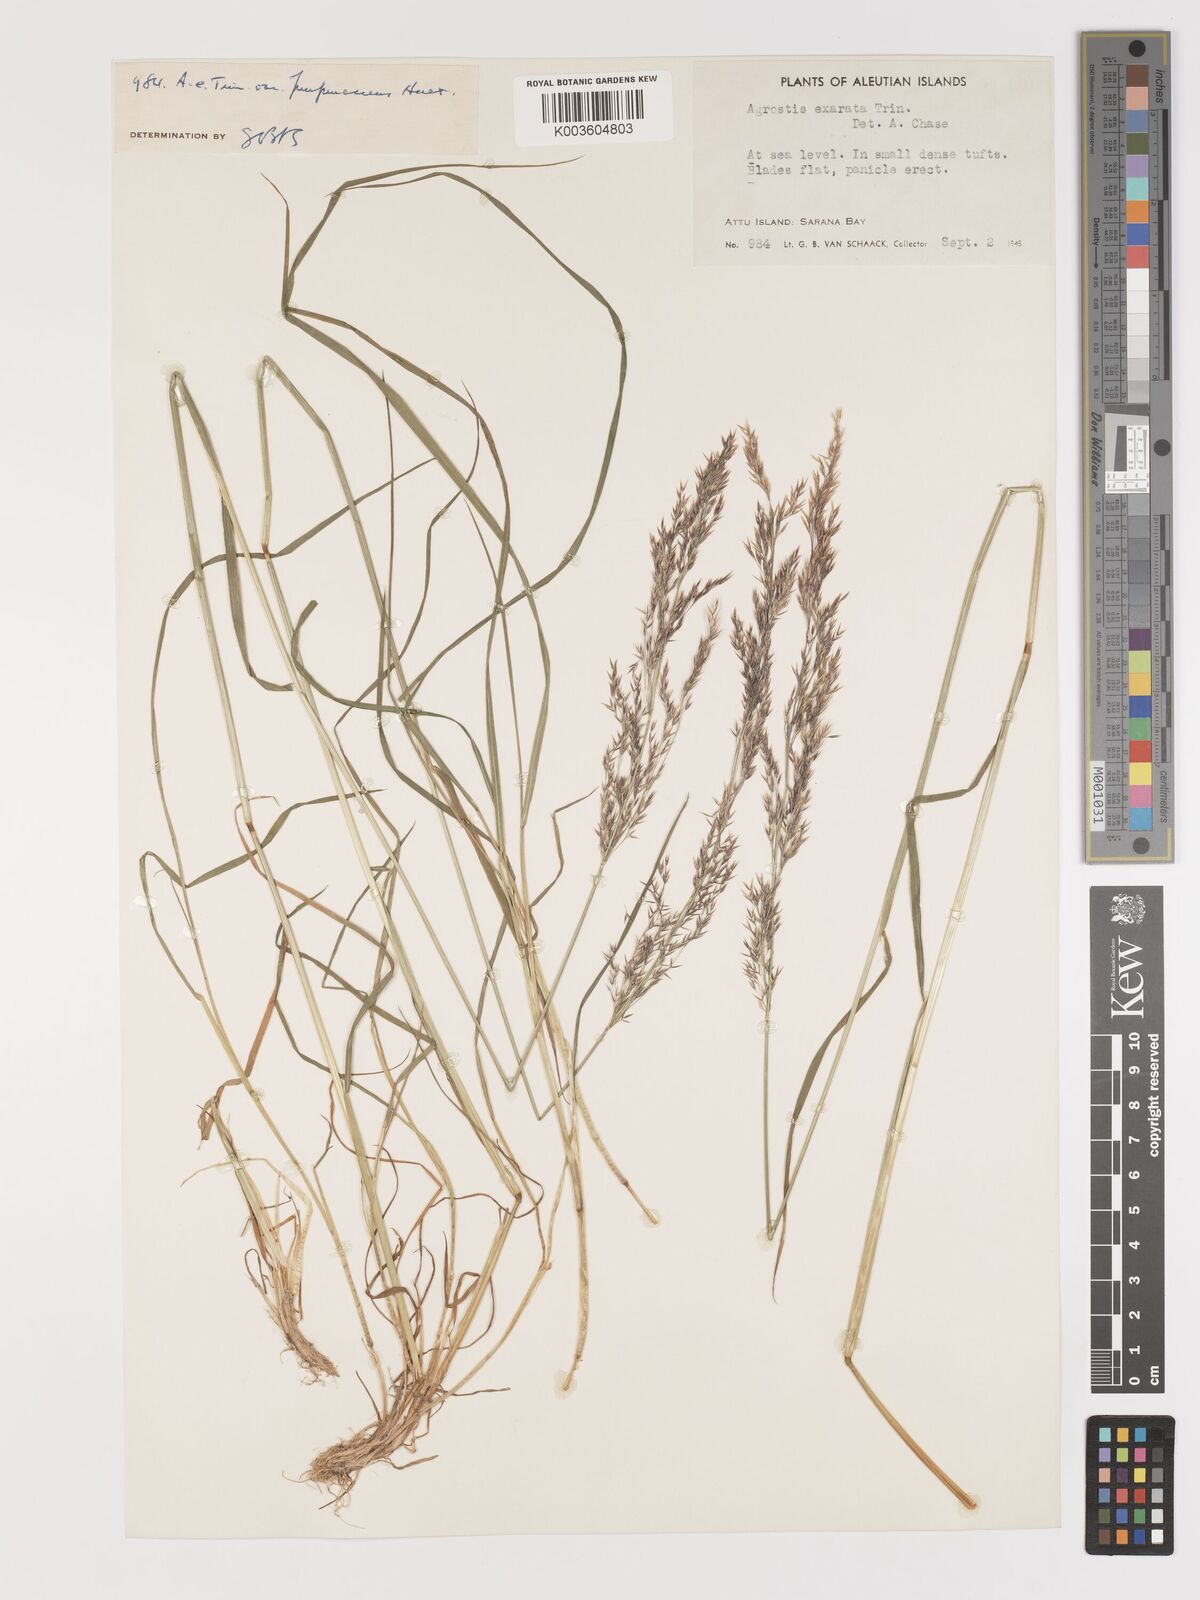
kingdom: Plantae
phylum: Tracheophyta
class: Liliopsida
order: Poales
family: Poaceae
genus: Agrostis
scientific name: Agrostis
